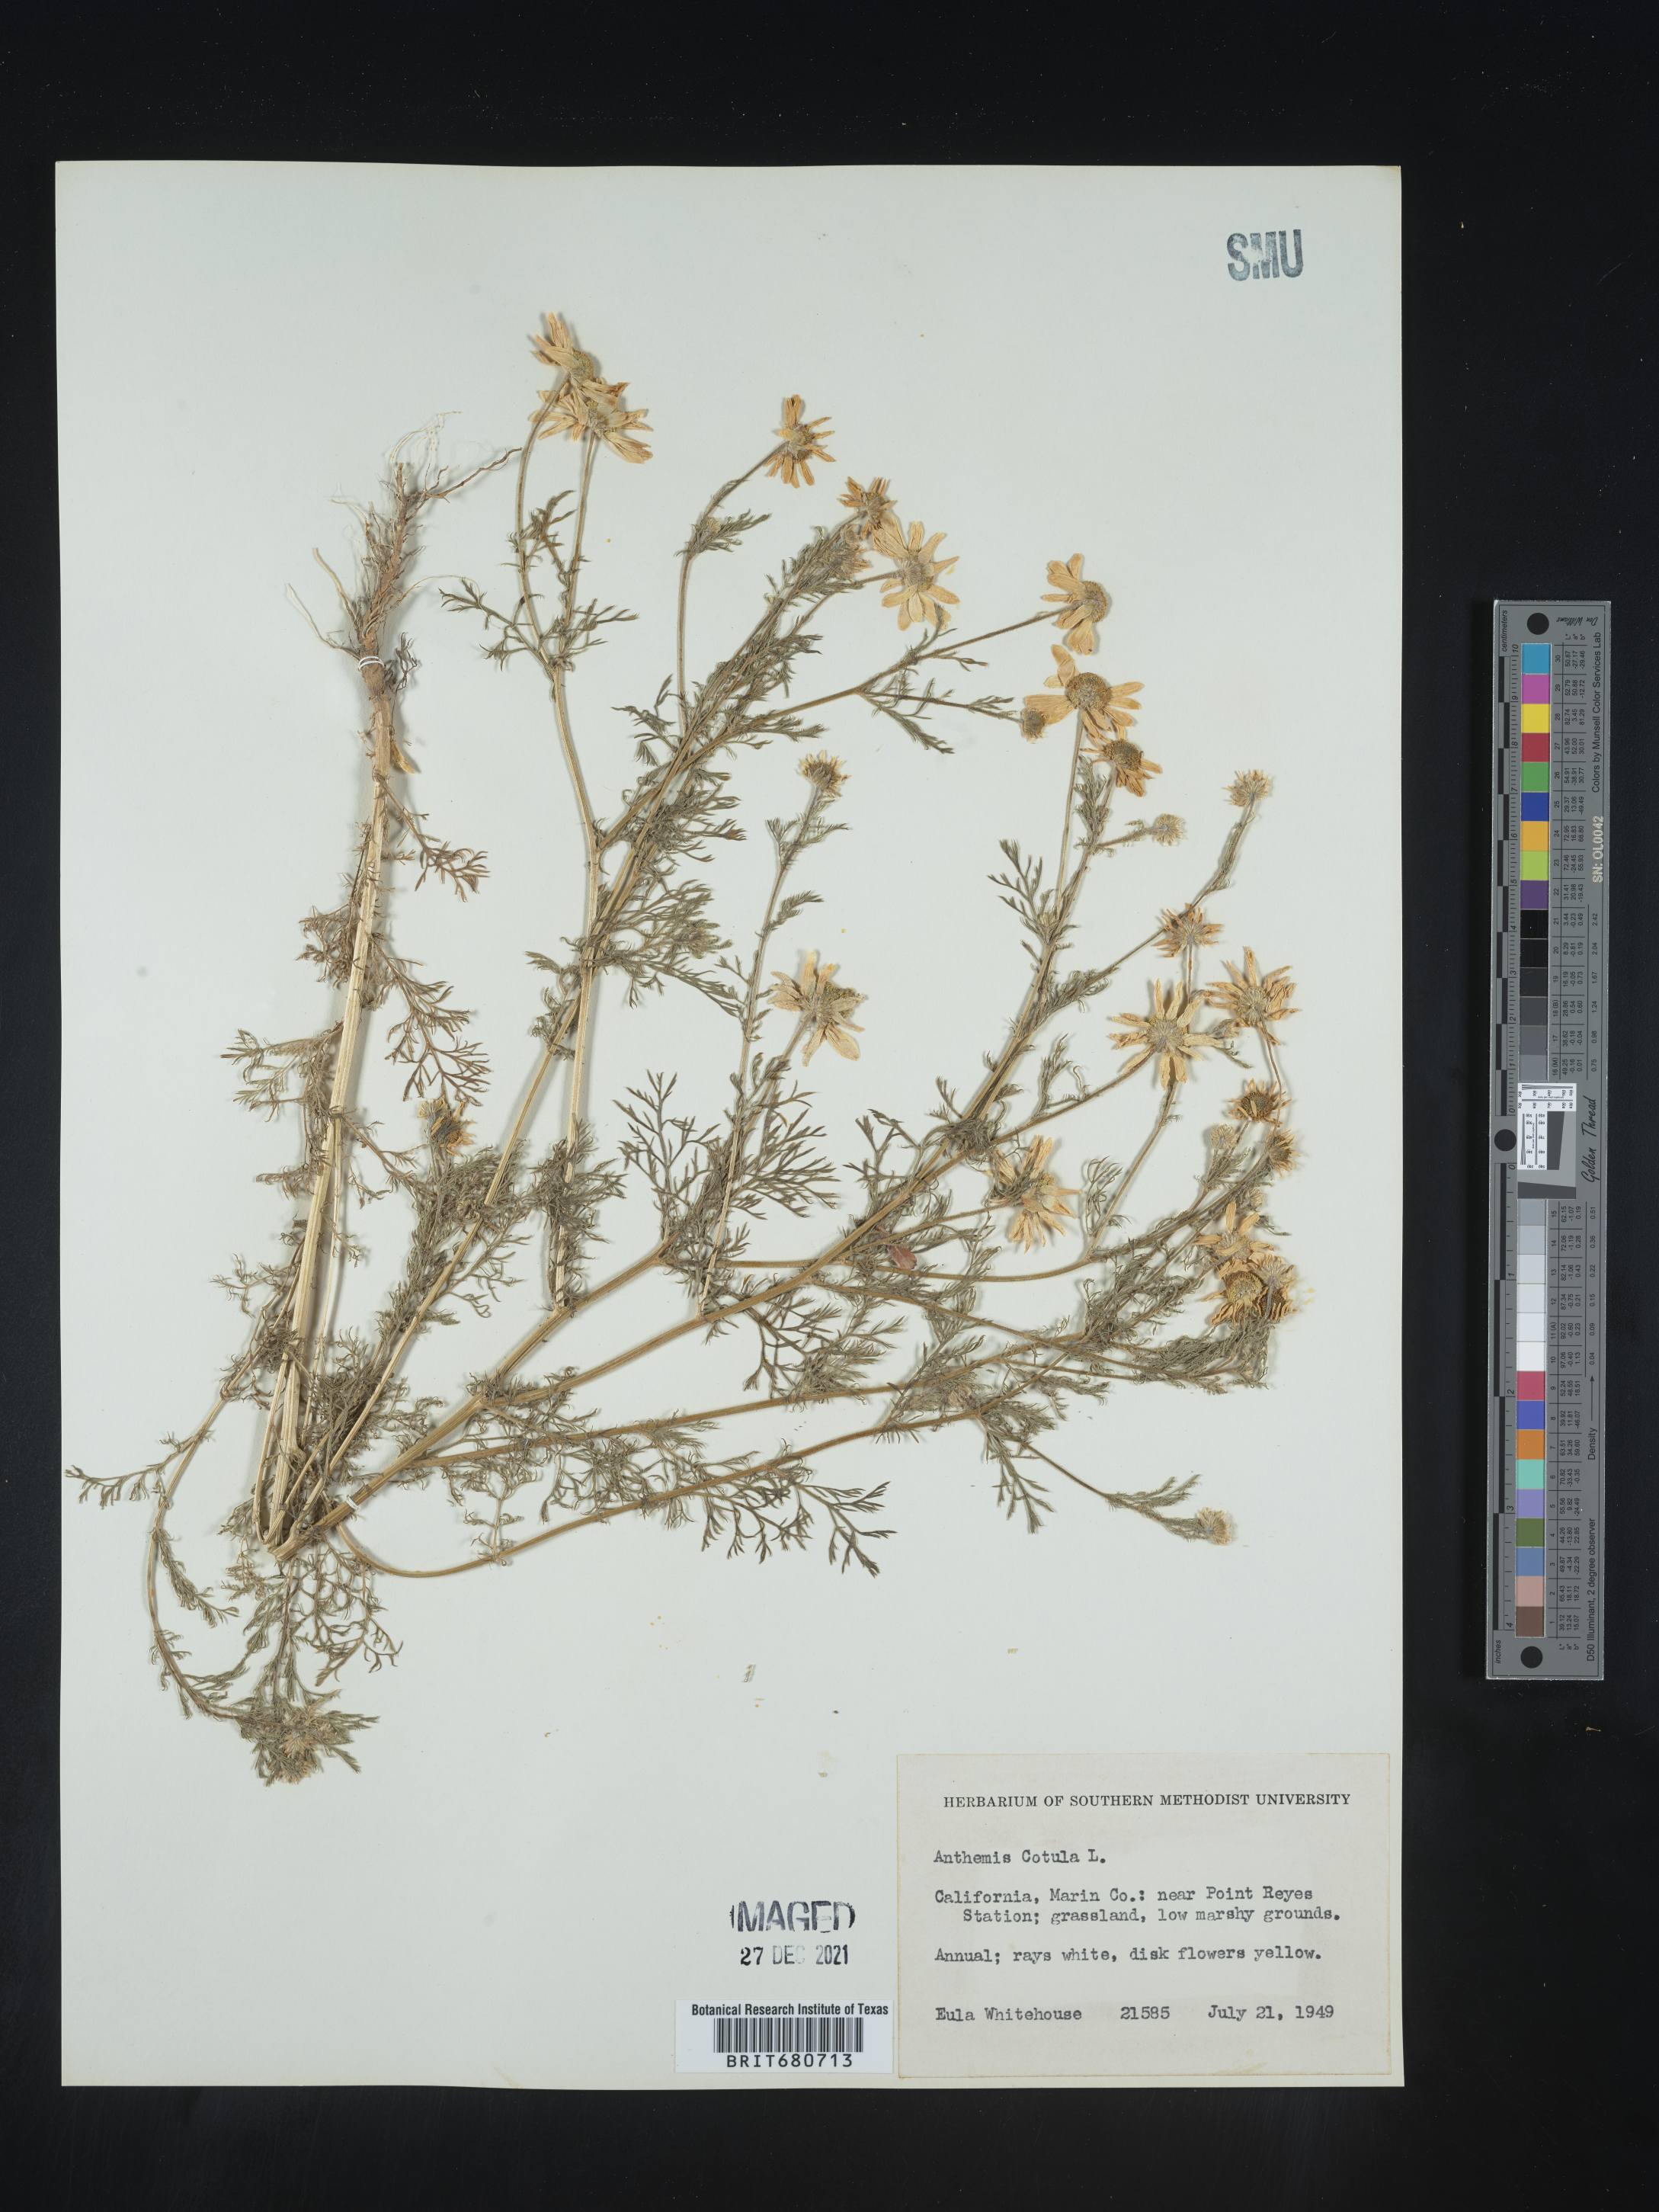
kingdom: Plantae
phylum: Tracheophyta
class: Magnoliopsida
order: Asterales
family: Asteraceae
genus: Anthemis
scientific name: Anthemis cotula
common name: Stinking chamomile
